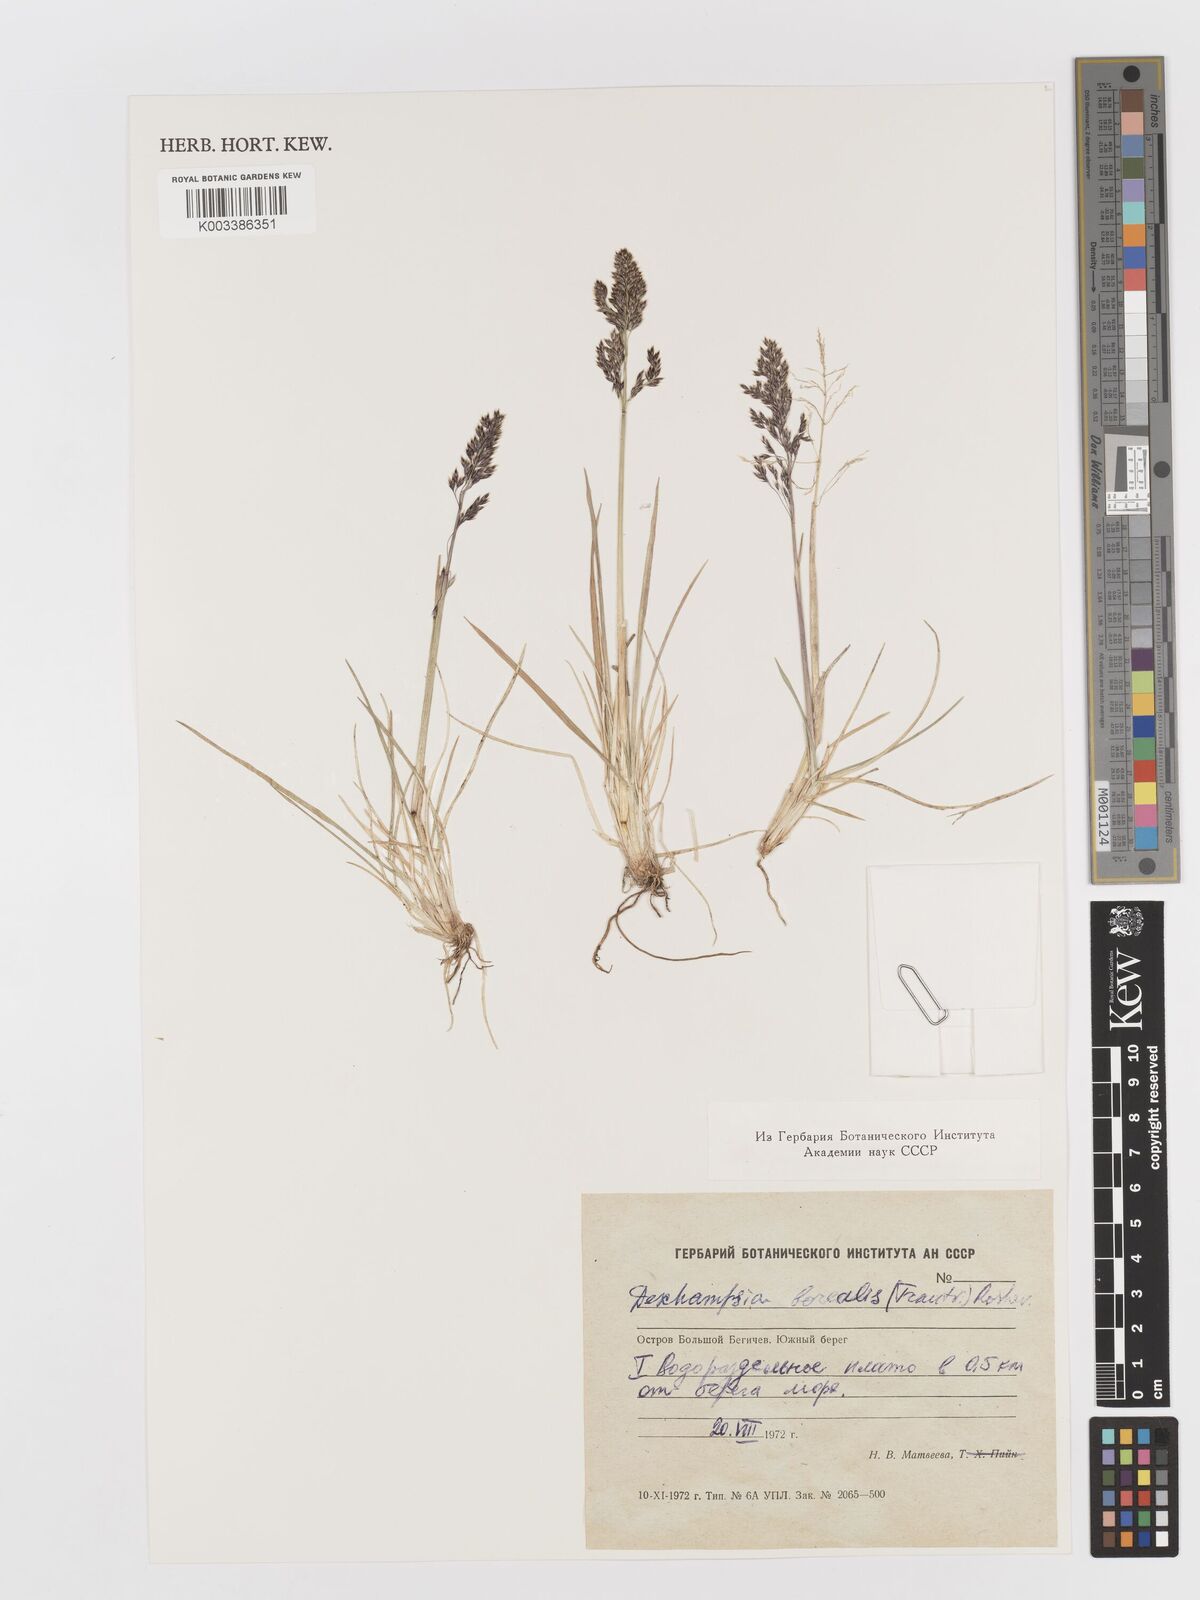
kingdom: Plantae
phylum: Tracheophyta
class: Liliopsida
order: Poales
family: Poaceae
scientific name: Poaceae
